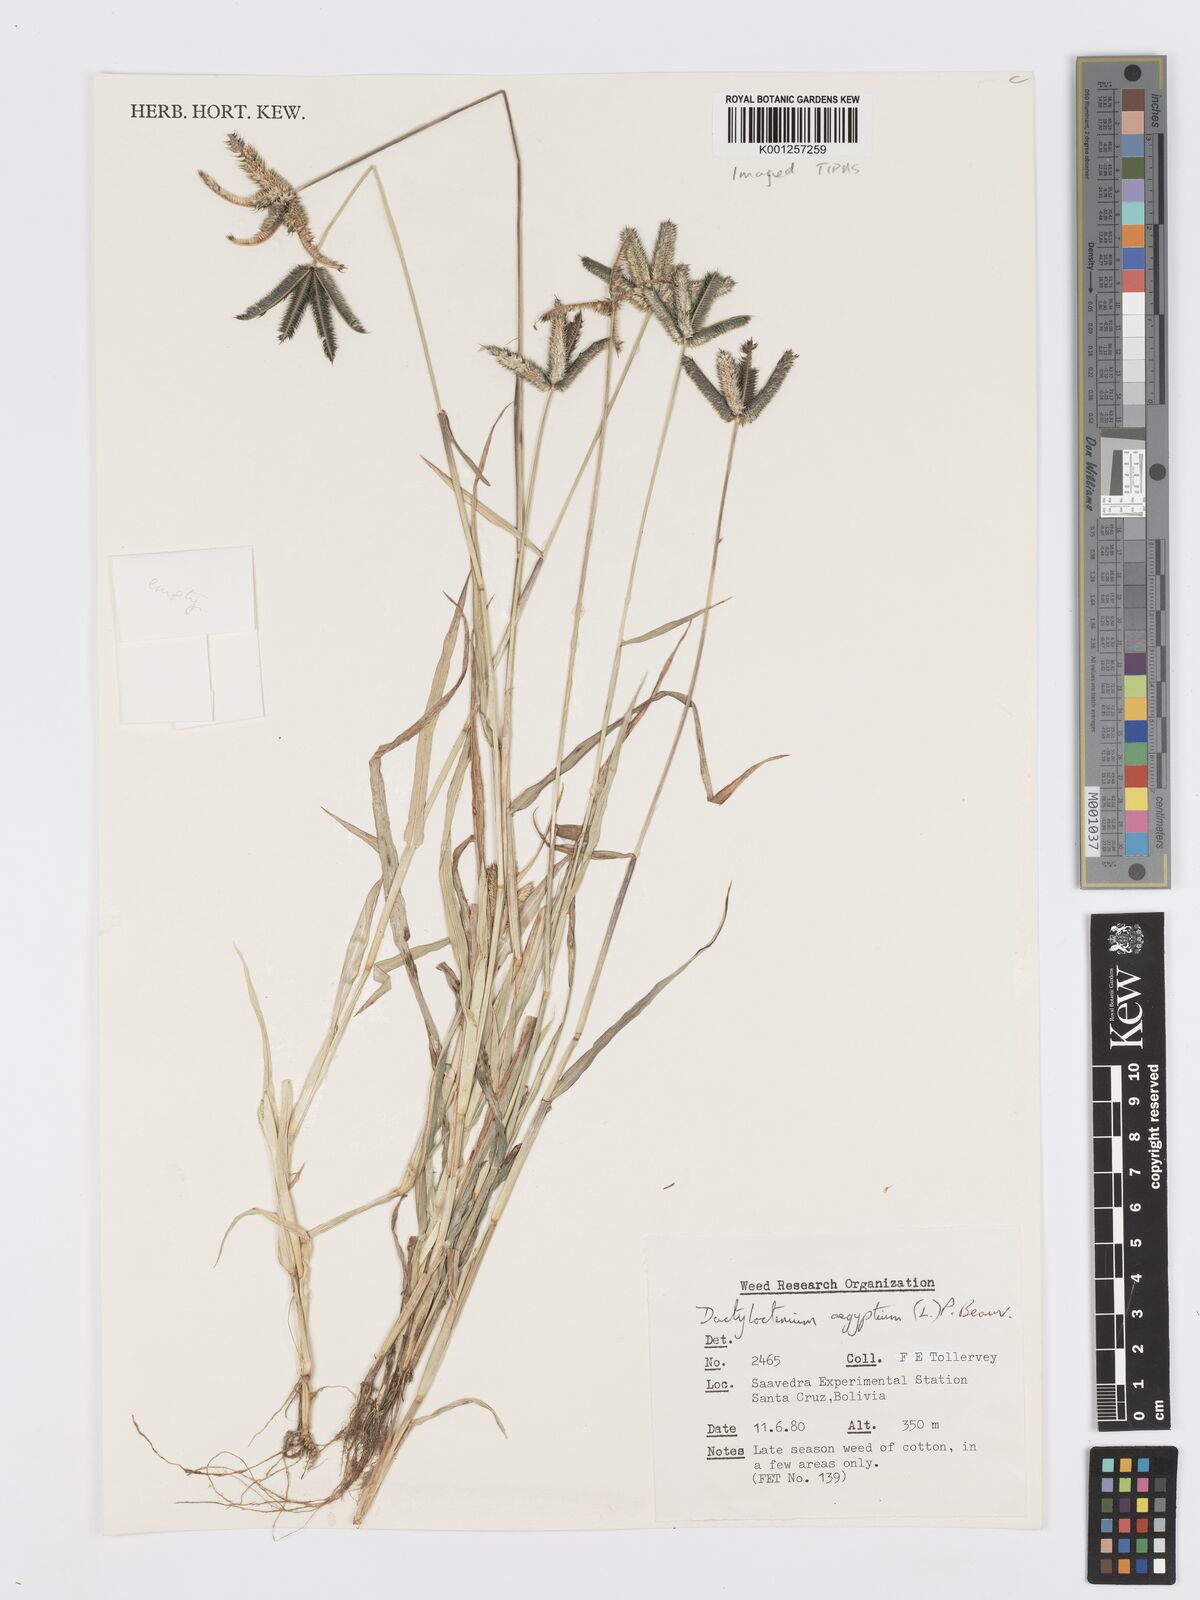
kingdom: Plantae
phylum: Tracheophyta
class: Liliopsida
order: Poales
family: Poaceae
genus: Dactyloctenium
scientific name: Dactyloctenium aegyptium
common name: Egyptian grass
